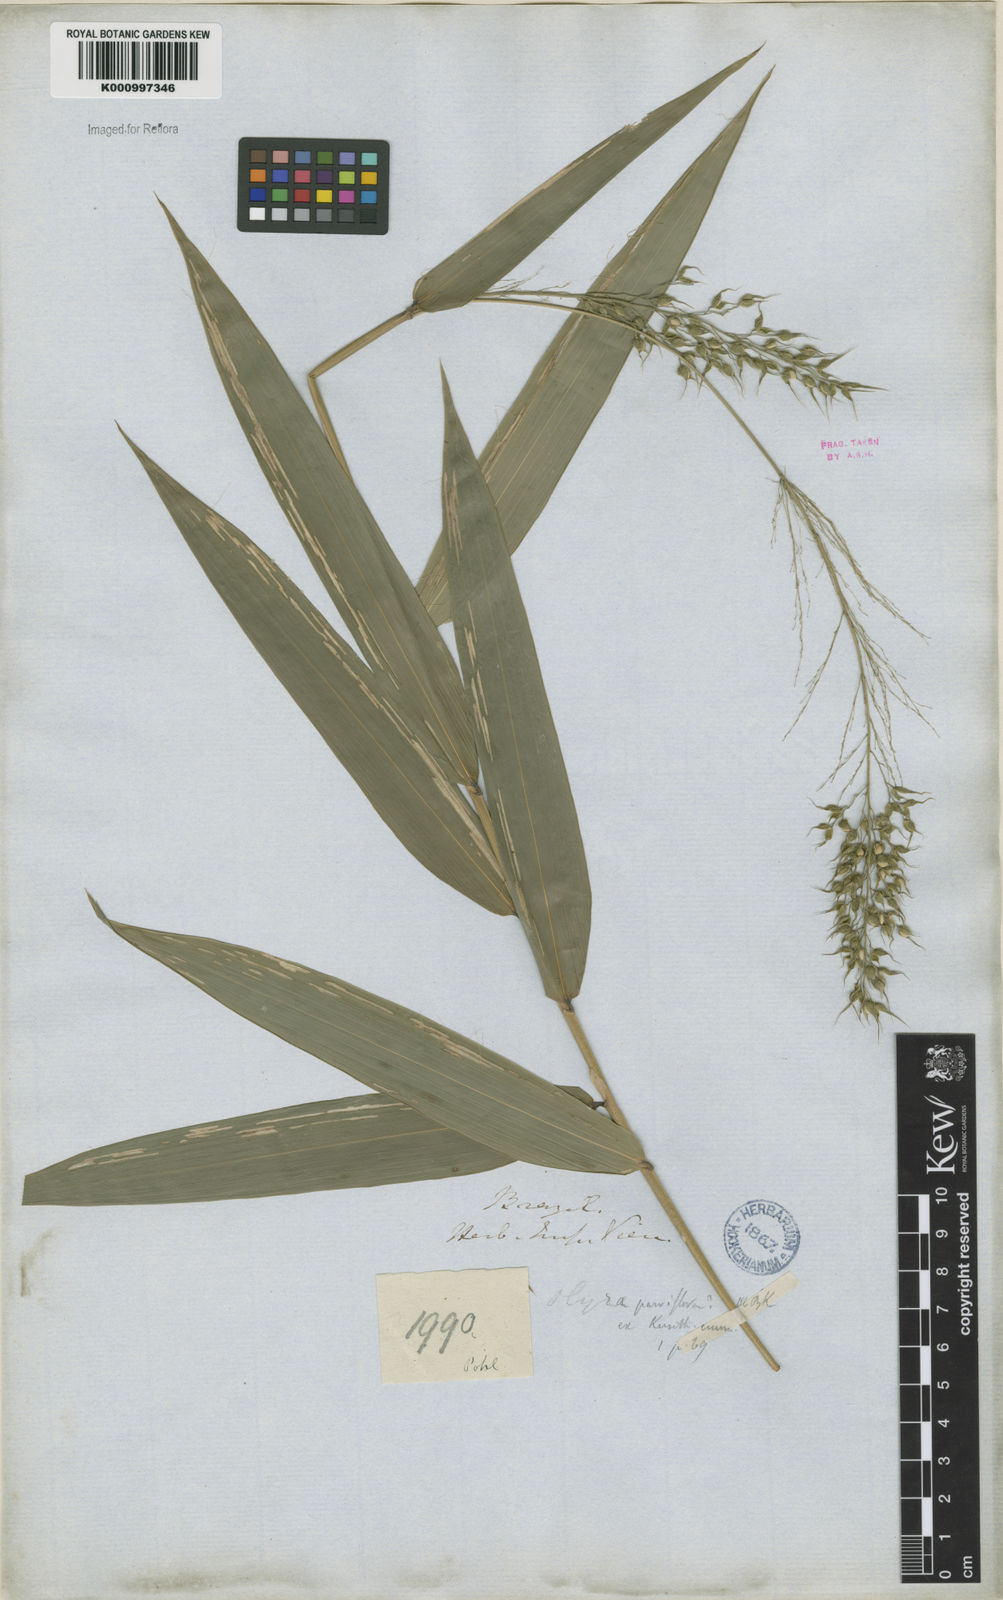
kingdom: Plantae
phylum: Tracheophyta
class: Liliopsida
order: Poales
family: Poaceae
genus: Taquara
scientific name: Taquara micrantha
